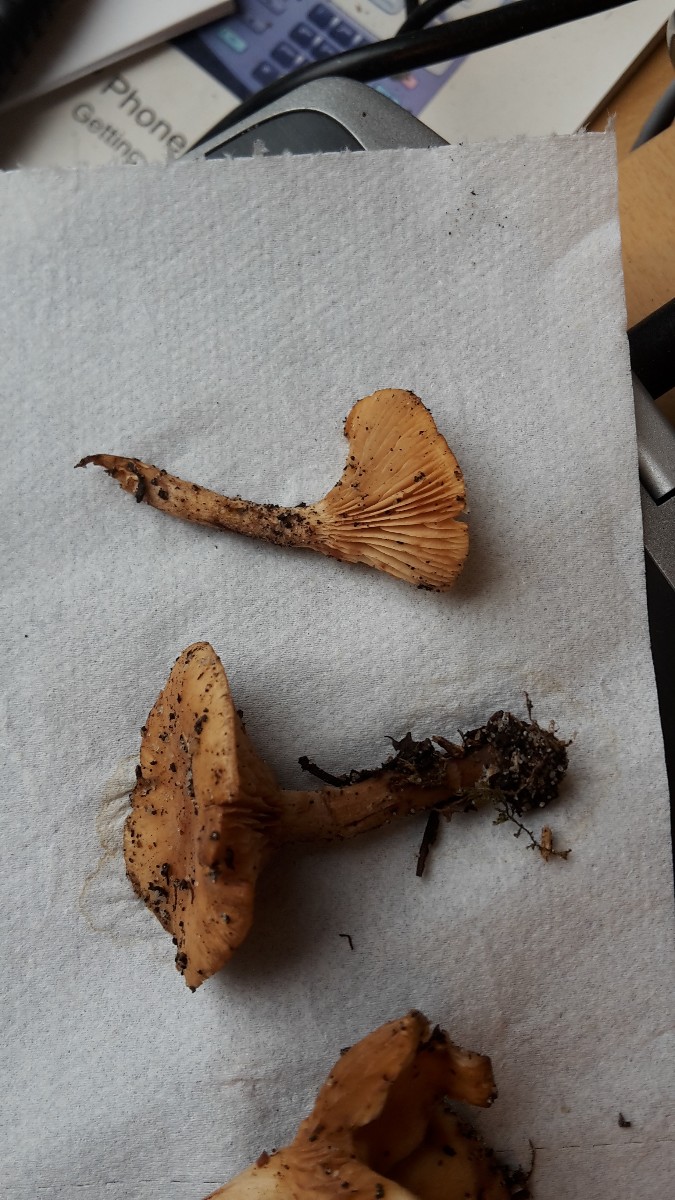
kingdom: Fungi
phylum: Basidiomycota
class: Agaricomycetes
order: Agaricales
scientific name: Agaricales
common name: champignonordenen
